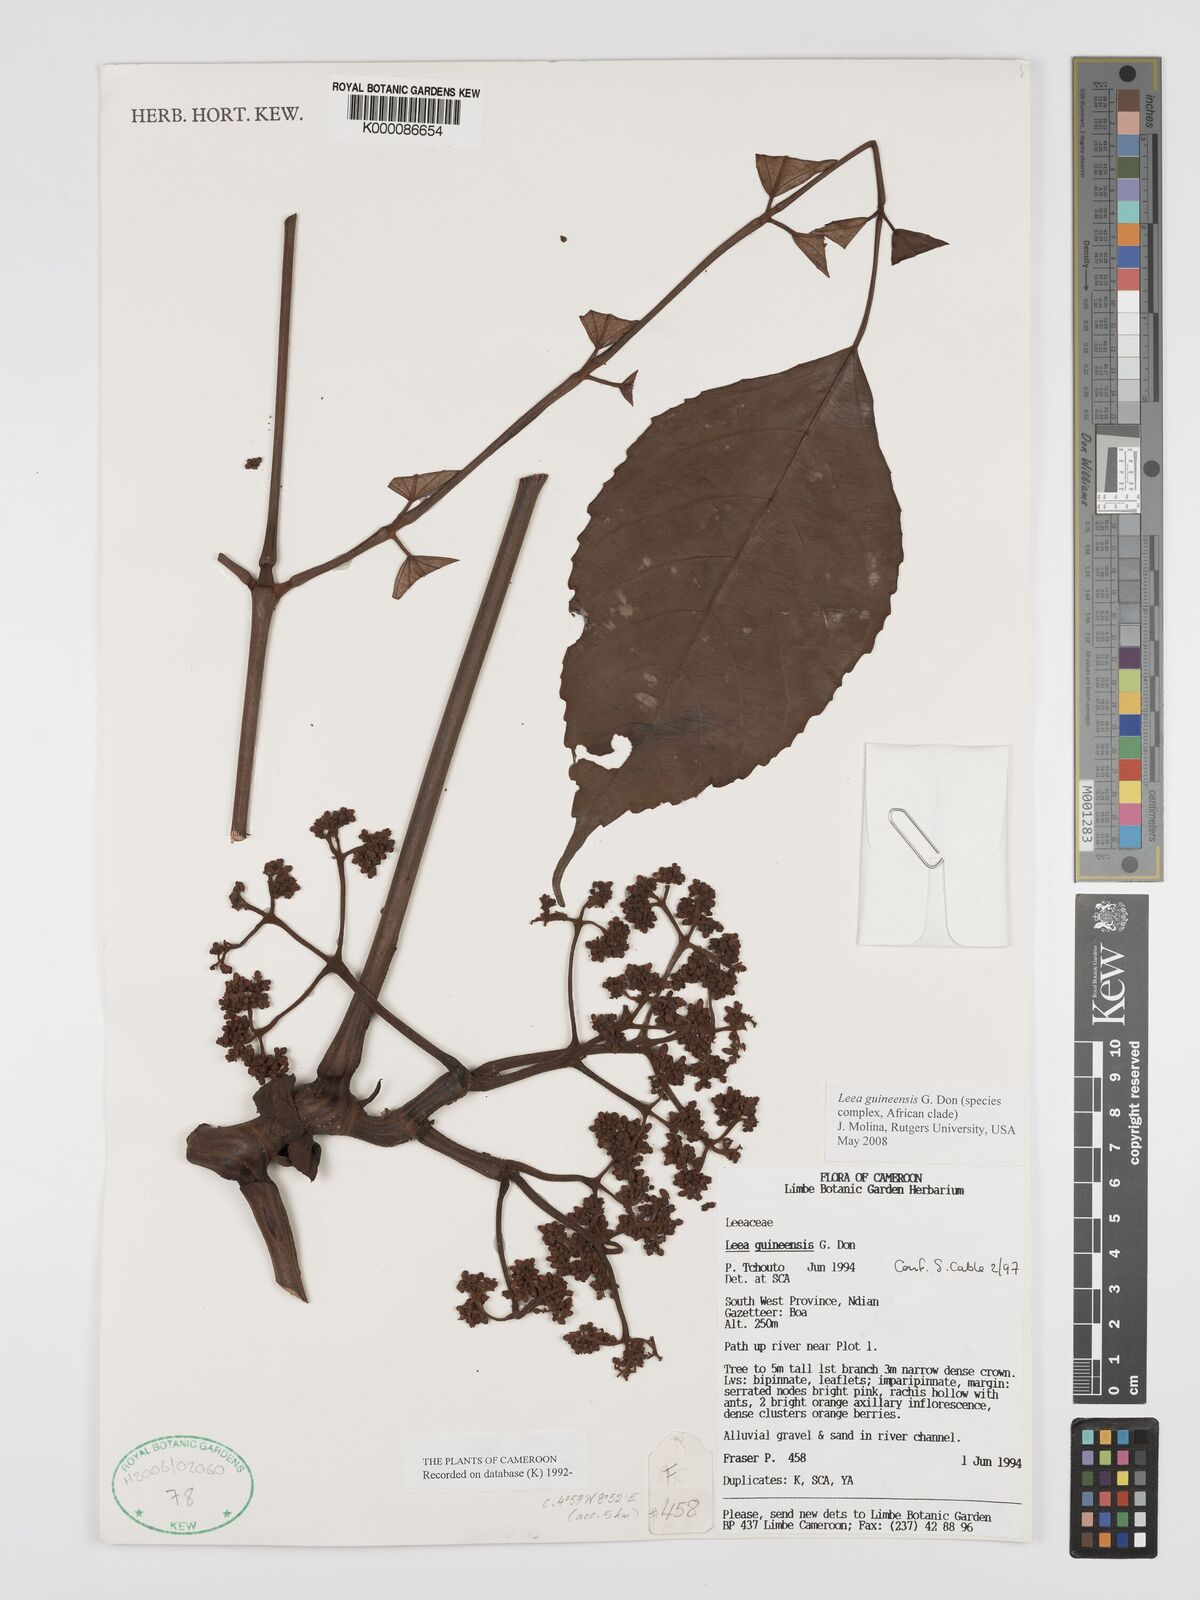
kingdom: Plantae
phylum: Tracheophyta
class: Magnoliopsida
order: Vitales
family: Vitaceae
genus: Leea
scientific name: Leea guineensis
